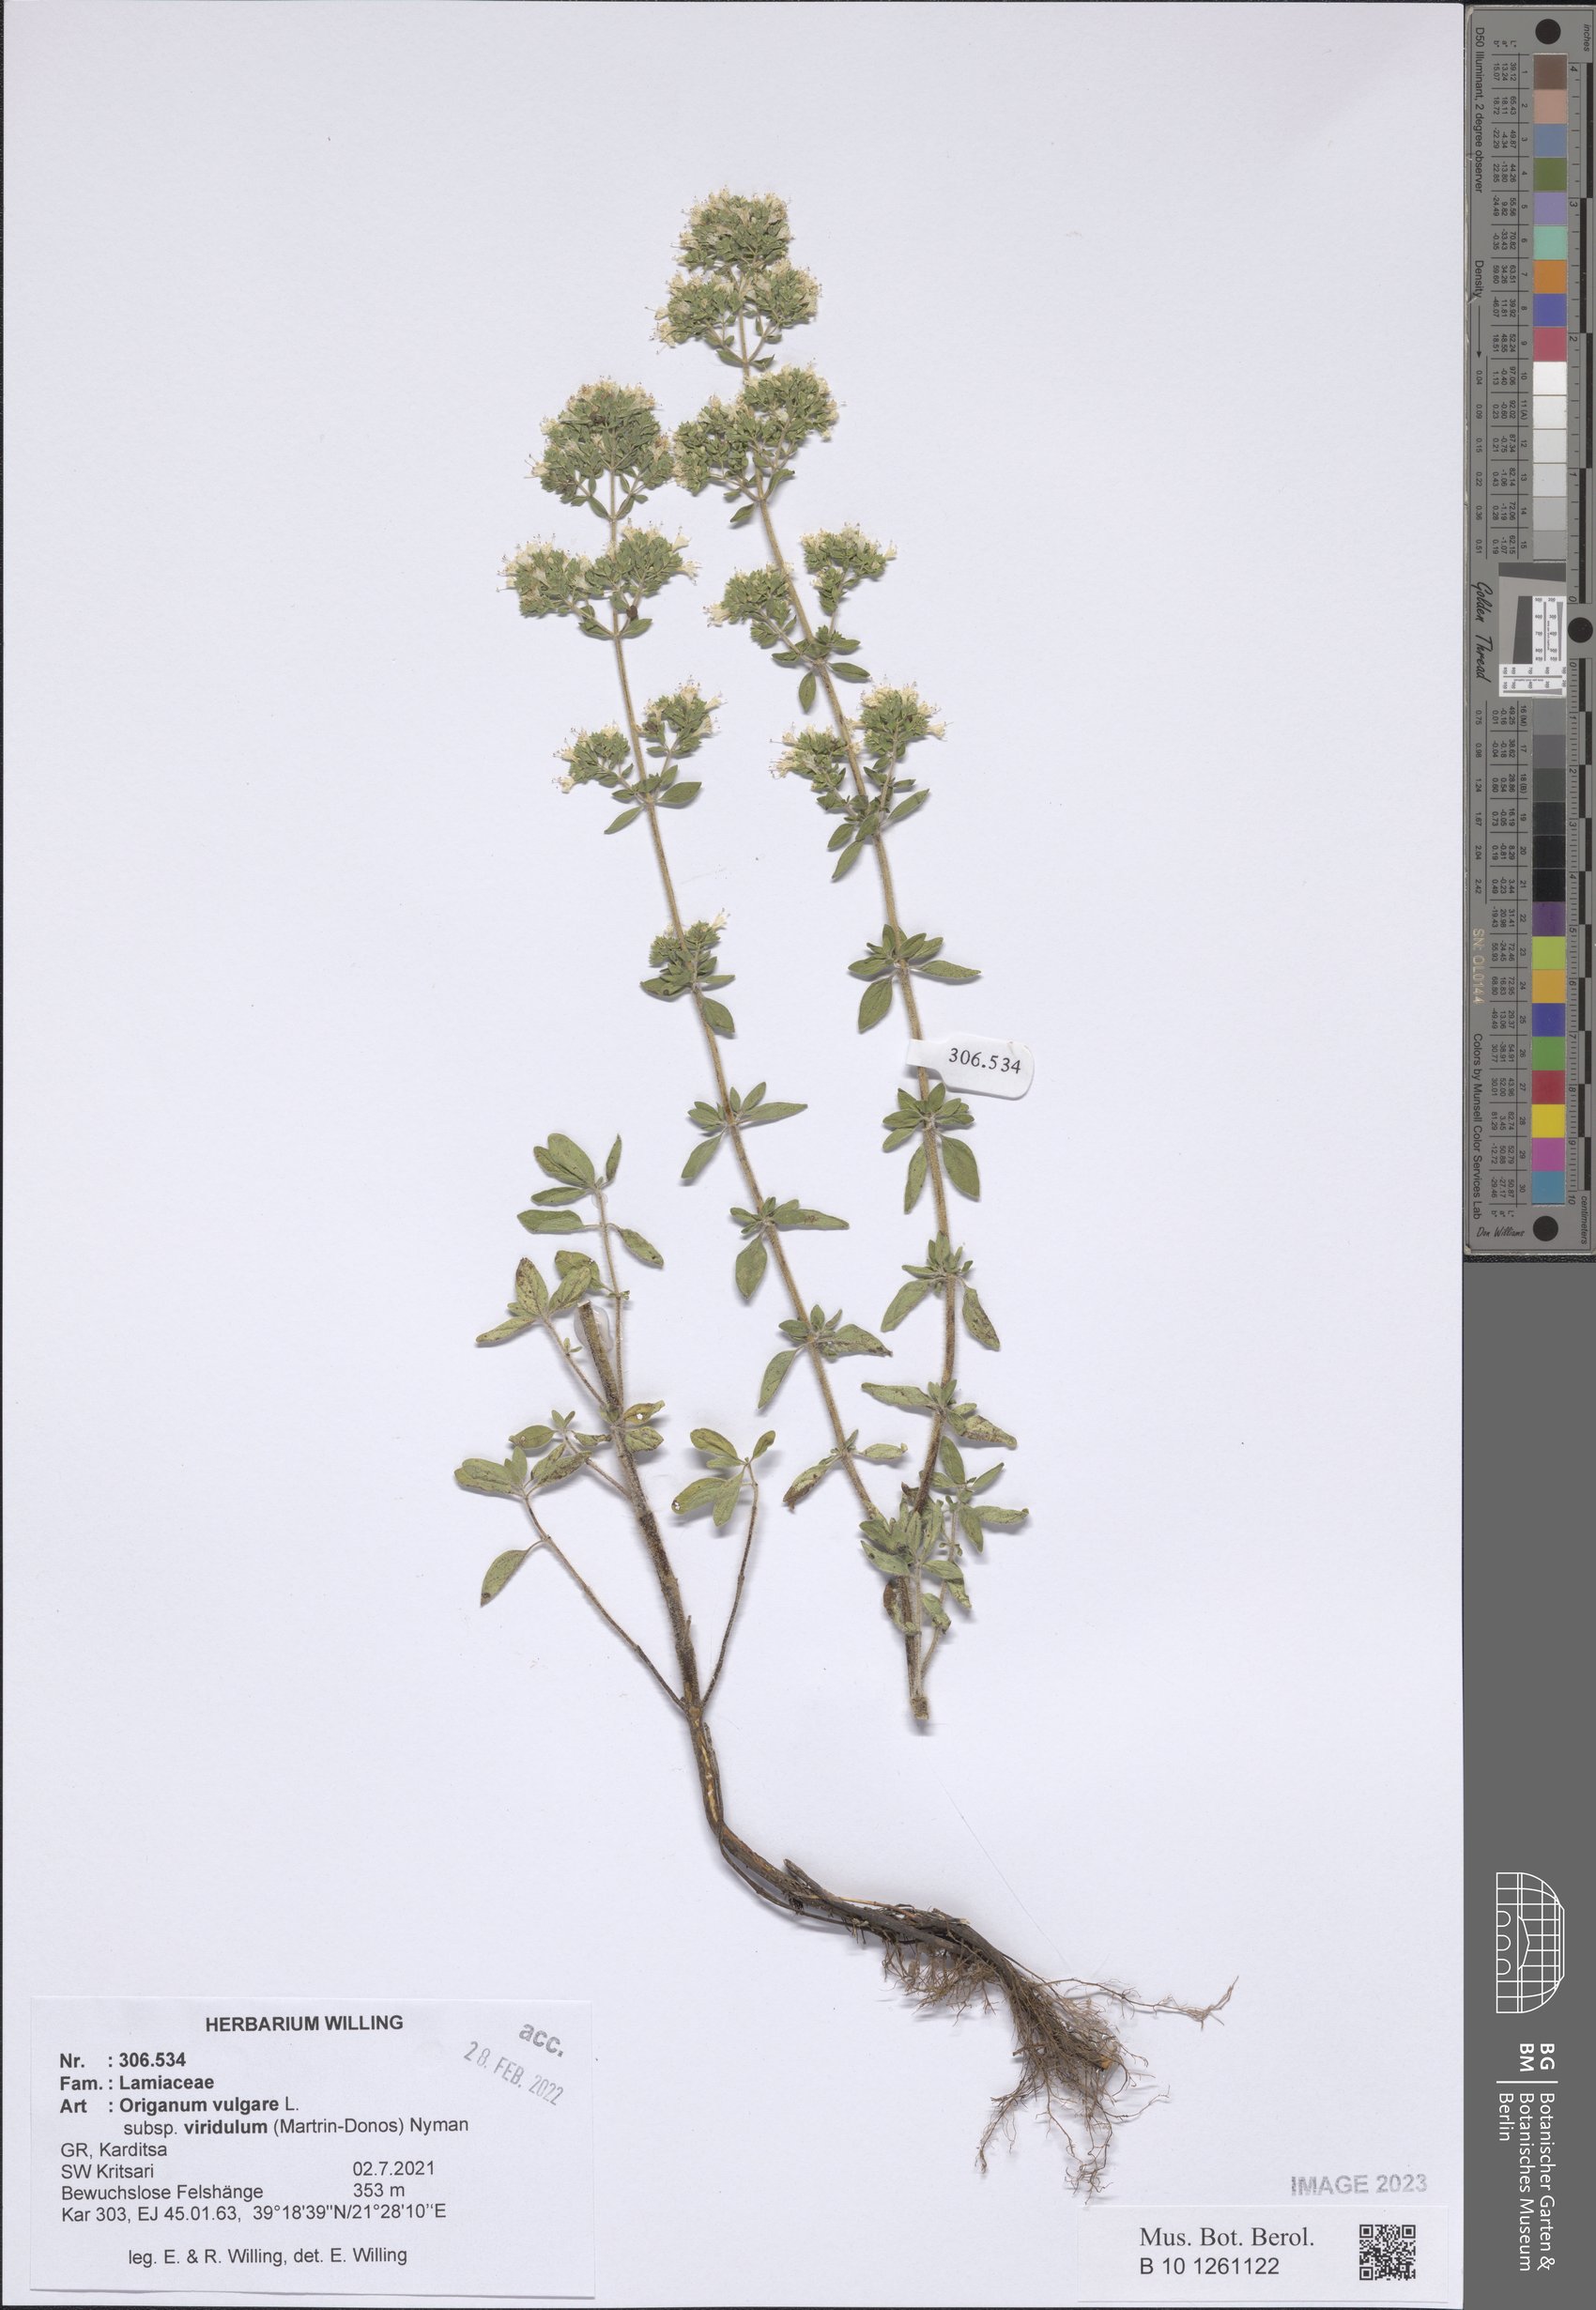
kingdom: Plantae
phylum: Tracheophyta
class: Magnoliopsida
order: Lamiales
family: Lamiaceae
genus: Origanum
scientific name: Origanum vulgare
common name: Wild marjoram
